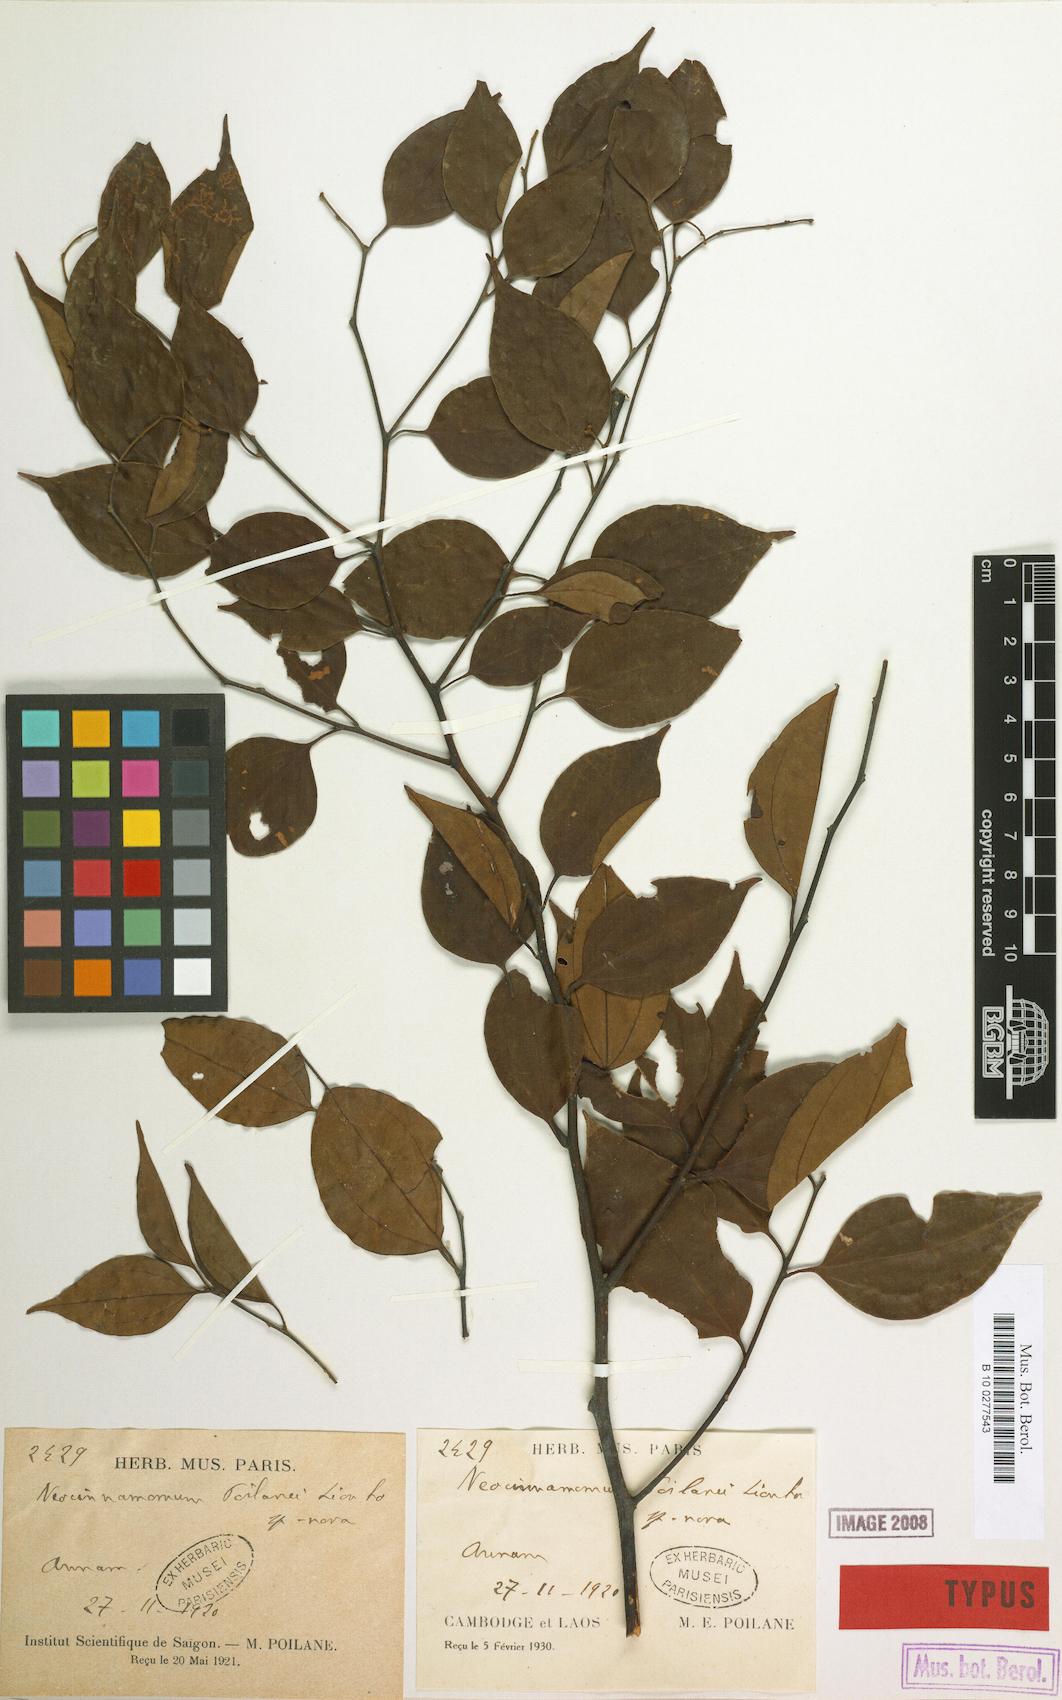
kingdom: Plantae
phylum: Tracheophyta
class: Magnoliopsida
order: Laurales
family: Lauraceae
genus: Neocinnamomum
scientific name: Neocinnamomum poilanei
